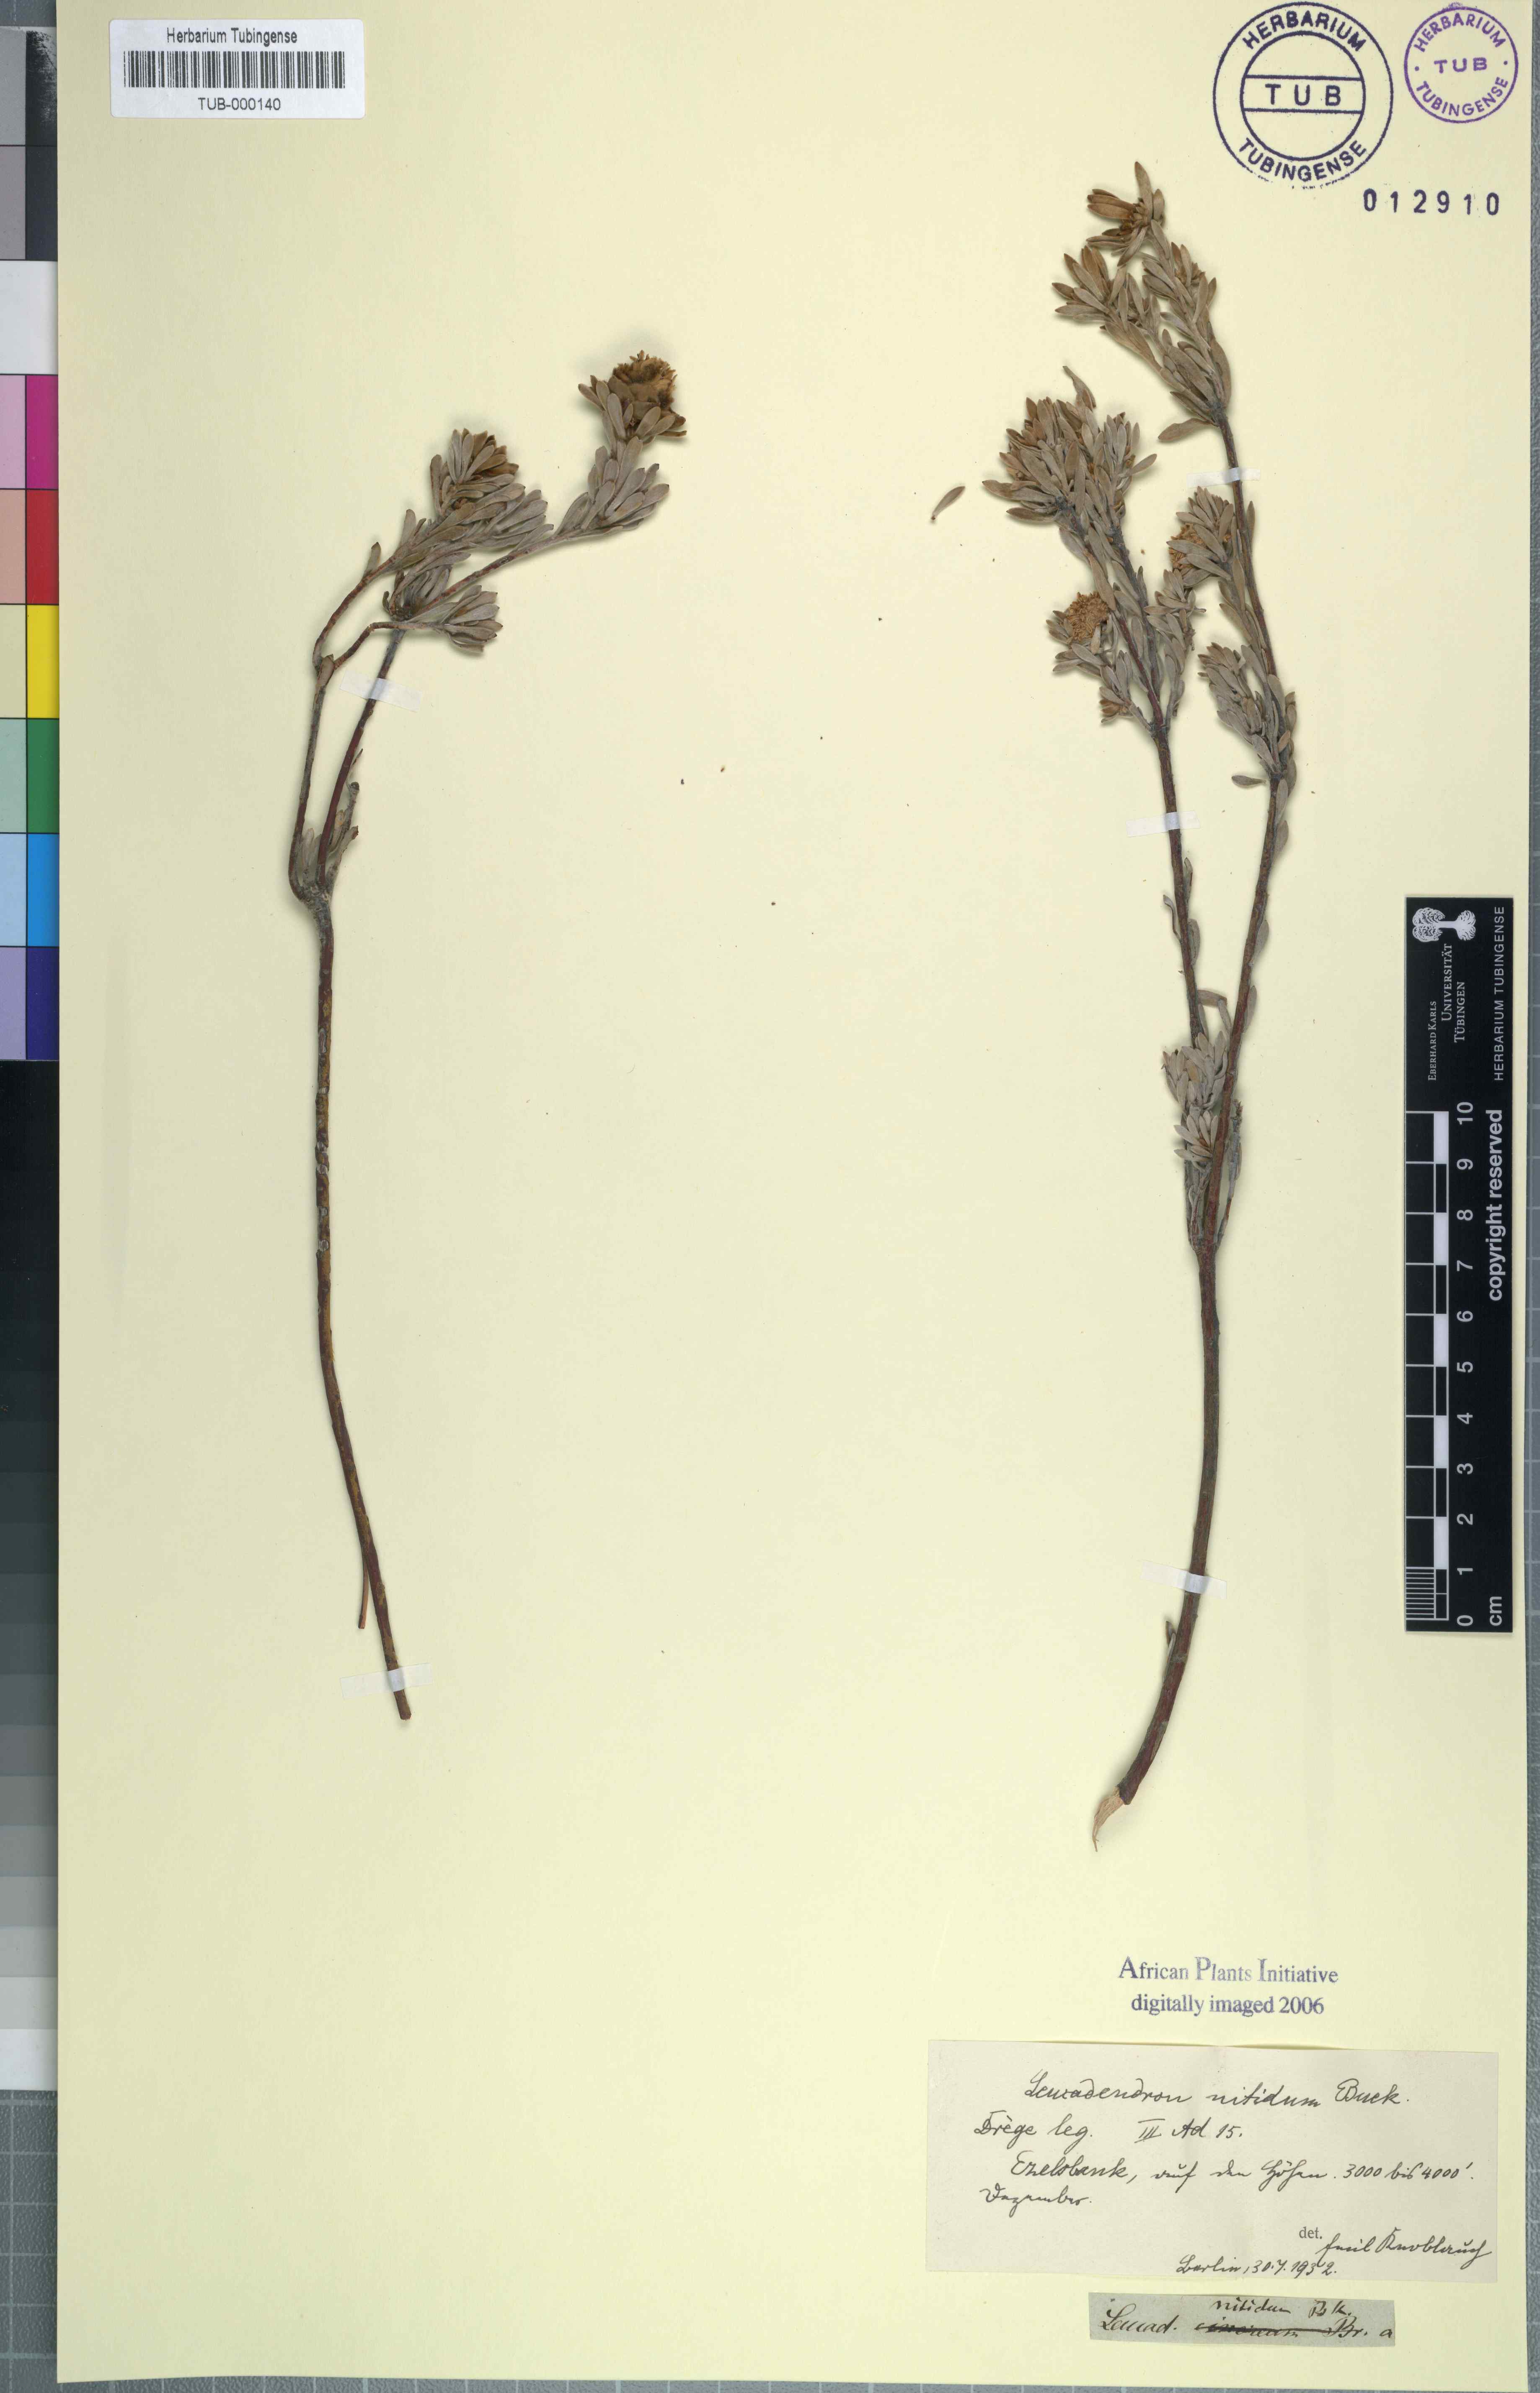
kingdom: Plantae
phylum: Tracheophyta
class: Magnoliopsida
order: Proteales
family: Proteaceae
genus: Leucadendron
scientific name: Leucadendron nitidum
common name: Bokkeveld conebush
